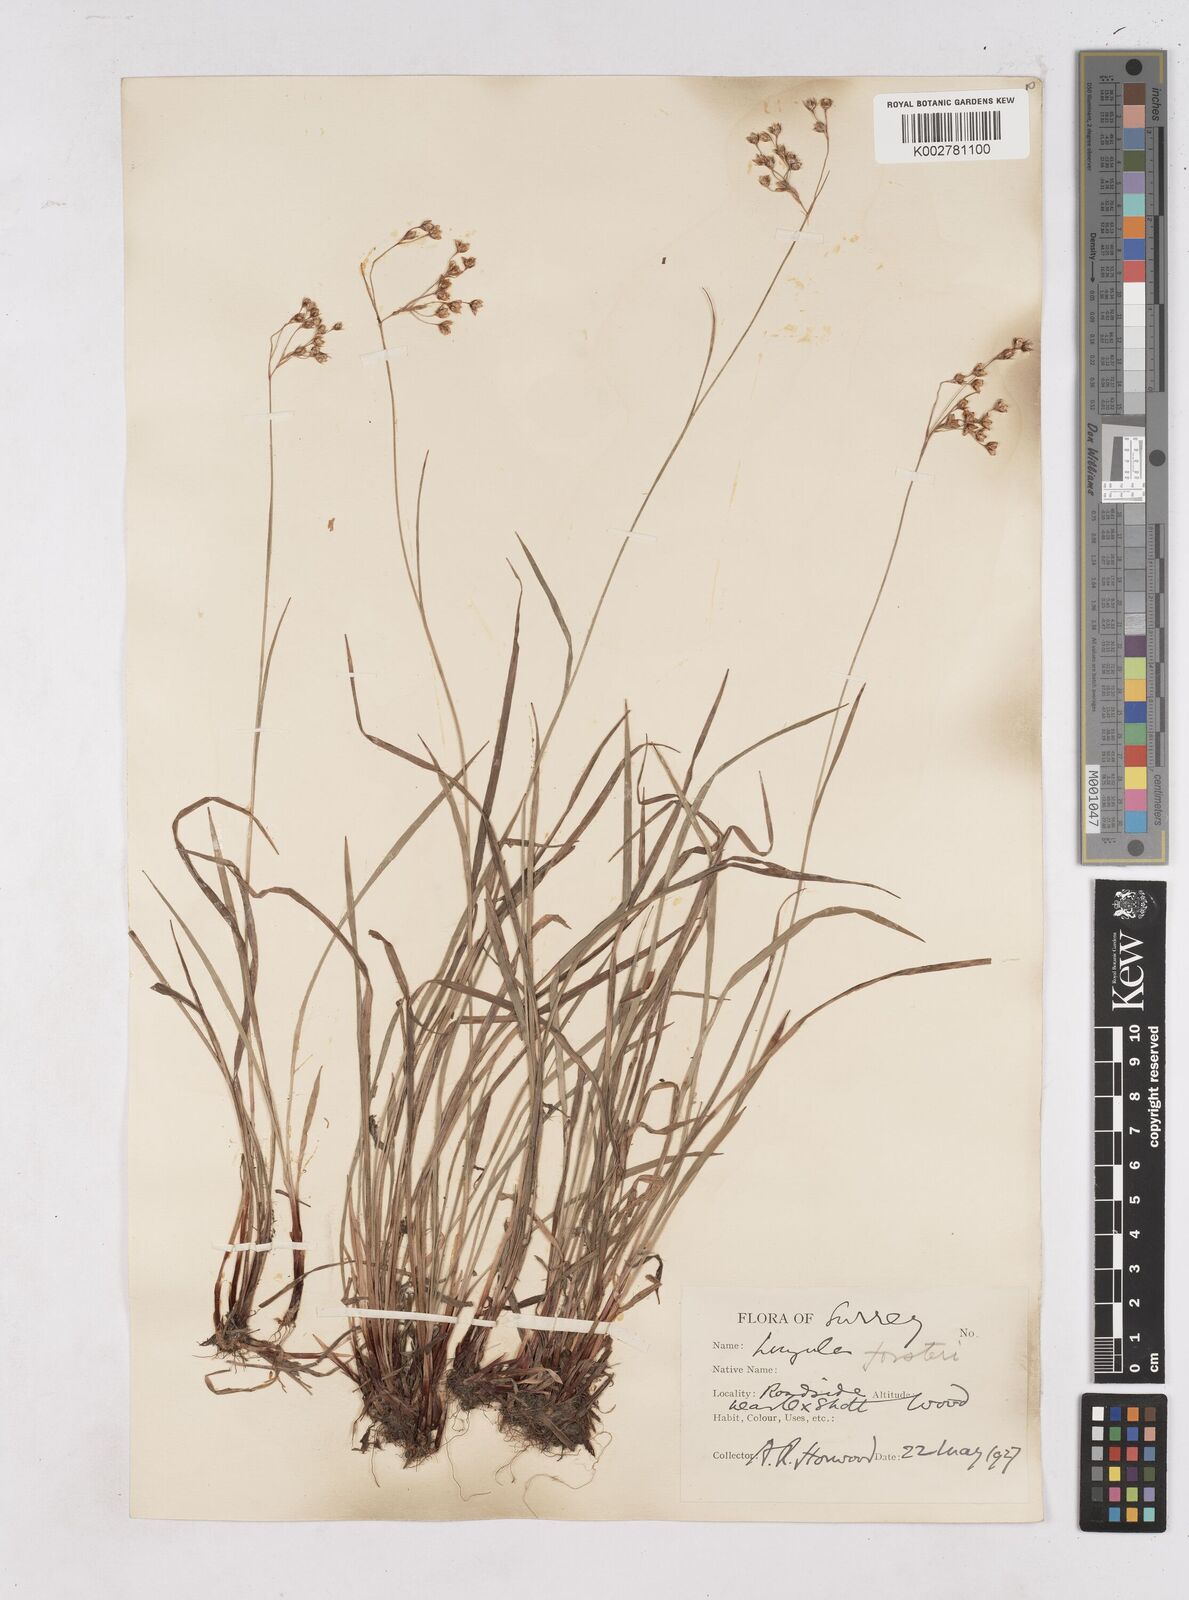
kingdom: Plantae
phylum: Tracheophyta
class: Liliopsida
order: Poales
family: Juncaceae
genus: Luzula
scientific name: Luzula forsteri
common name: Southern wood-rush
